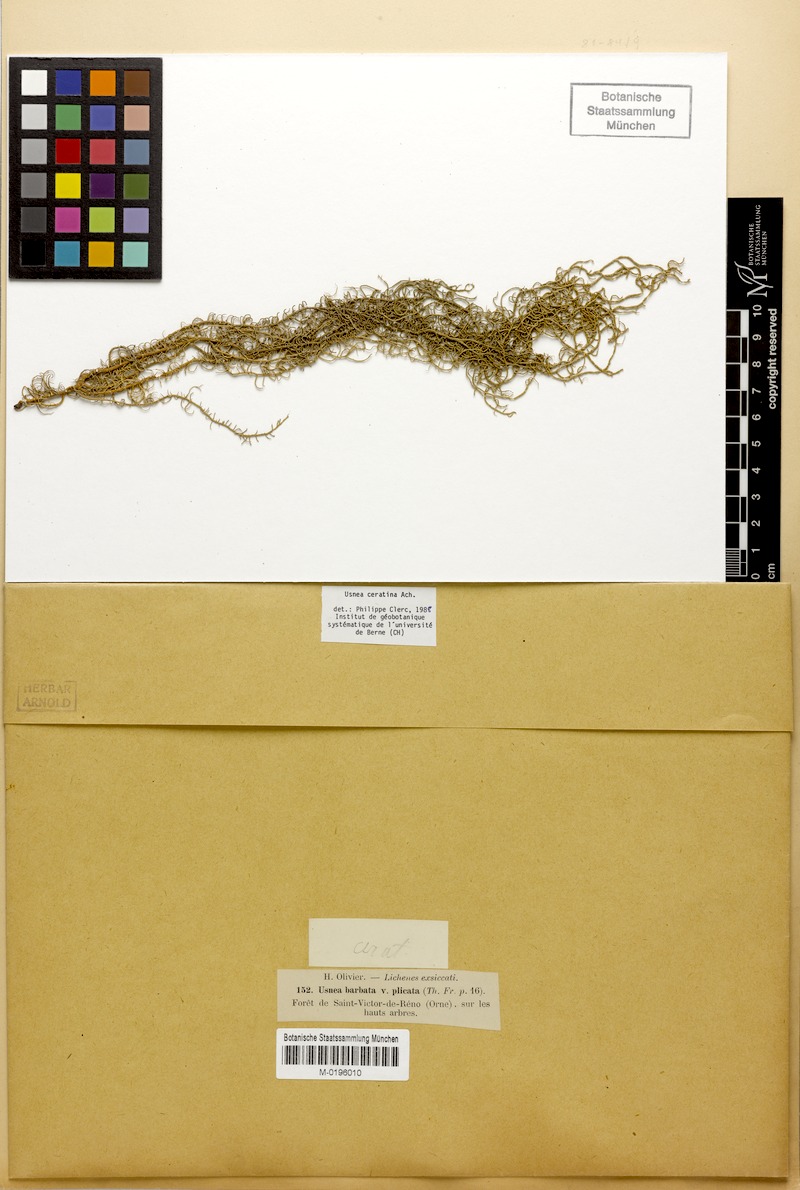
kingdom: Fungi
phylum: Ascomycota
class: Lecanoromycetes
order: Lecanorales
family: Parmeliaceae
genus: Usnea
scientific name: Usnea ceratina
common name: Warty beard lichen
